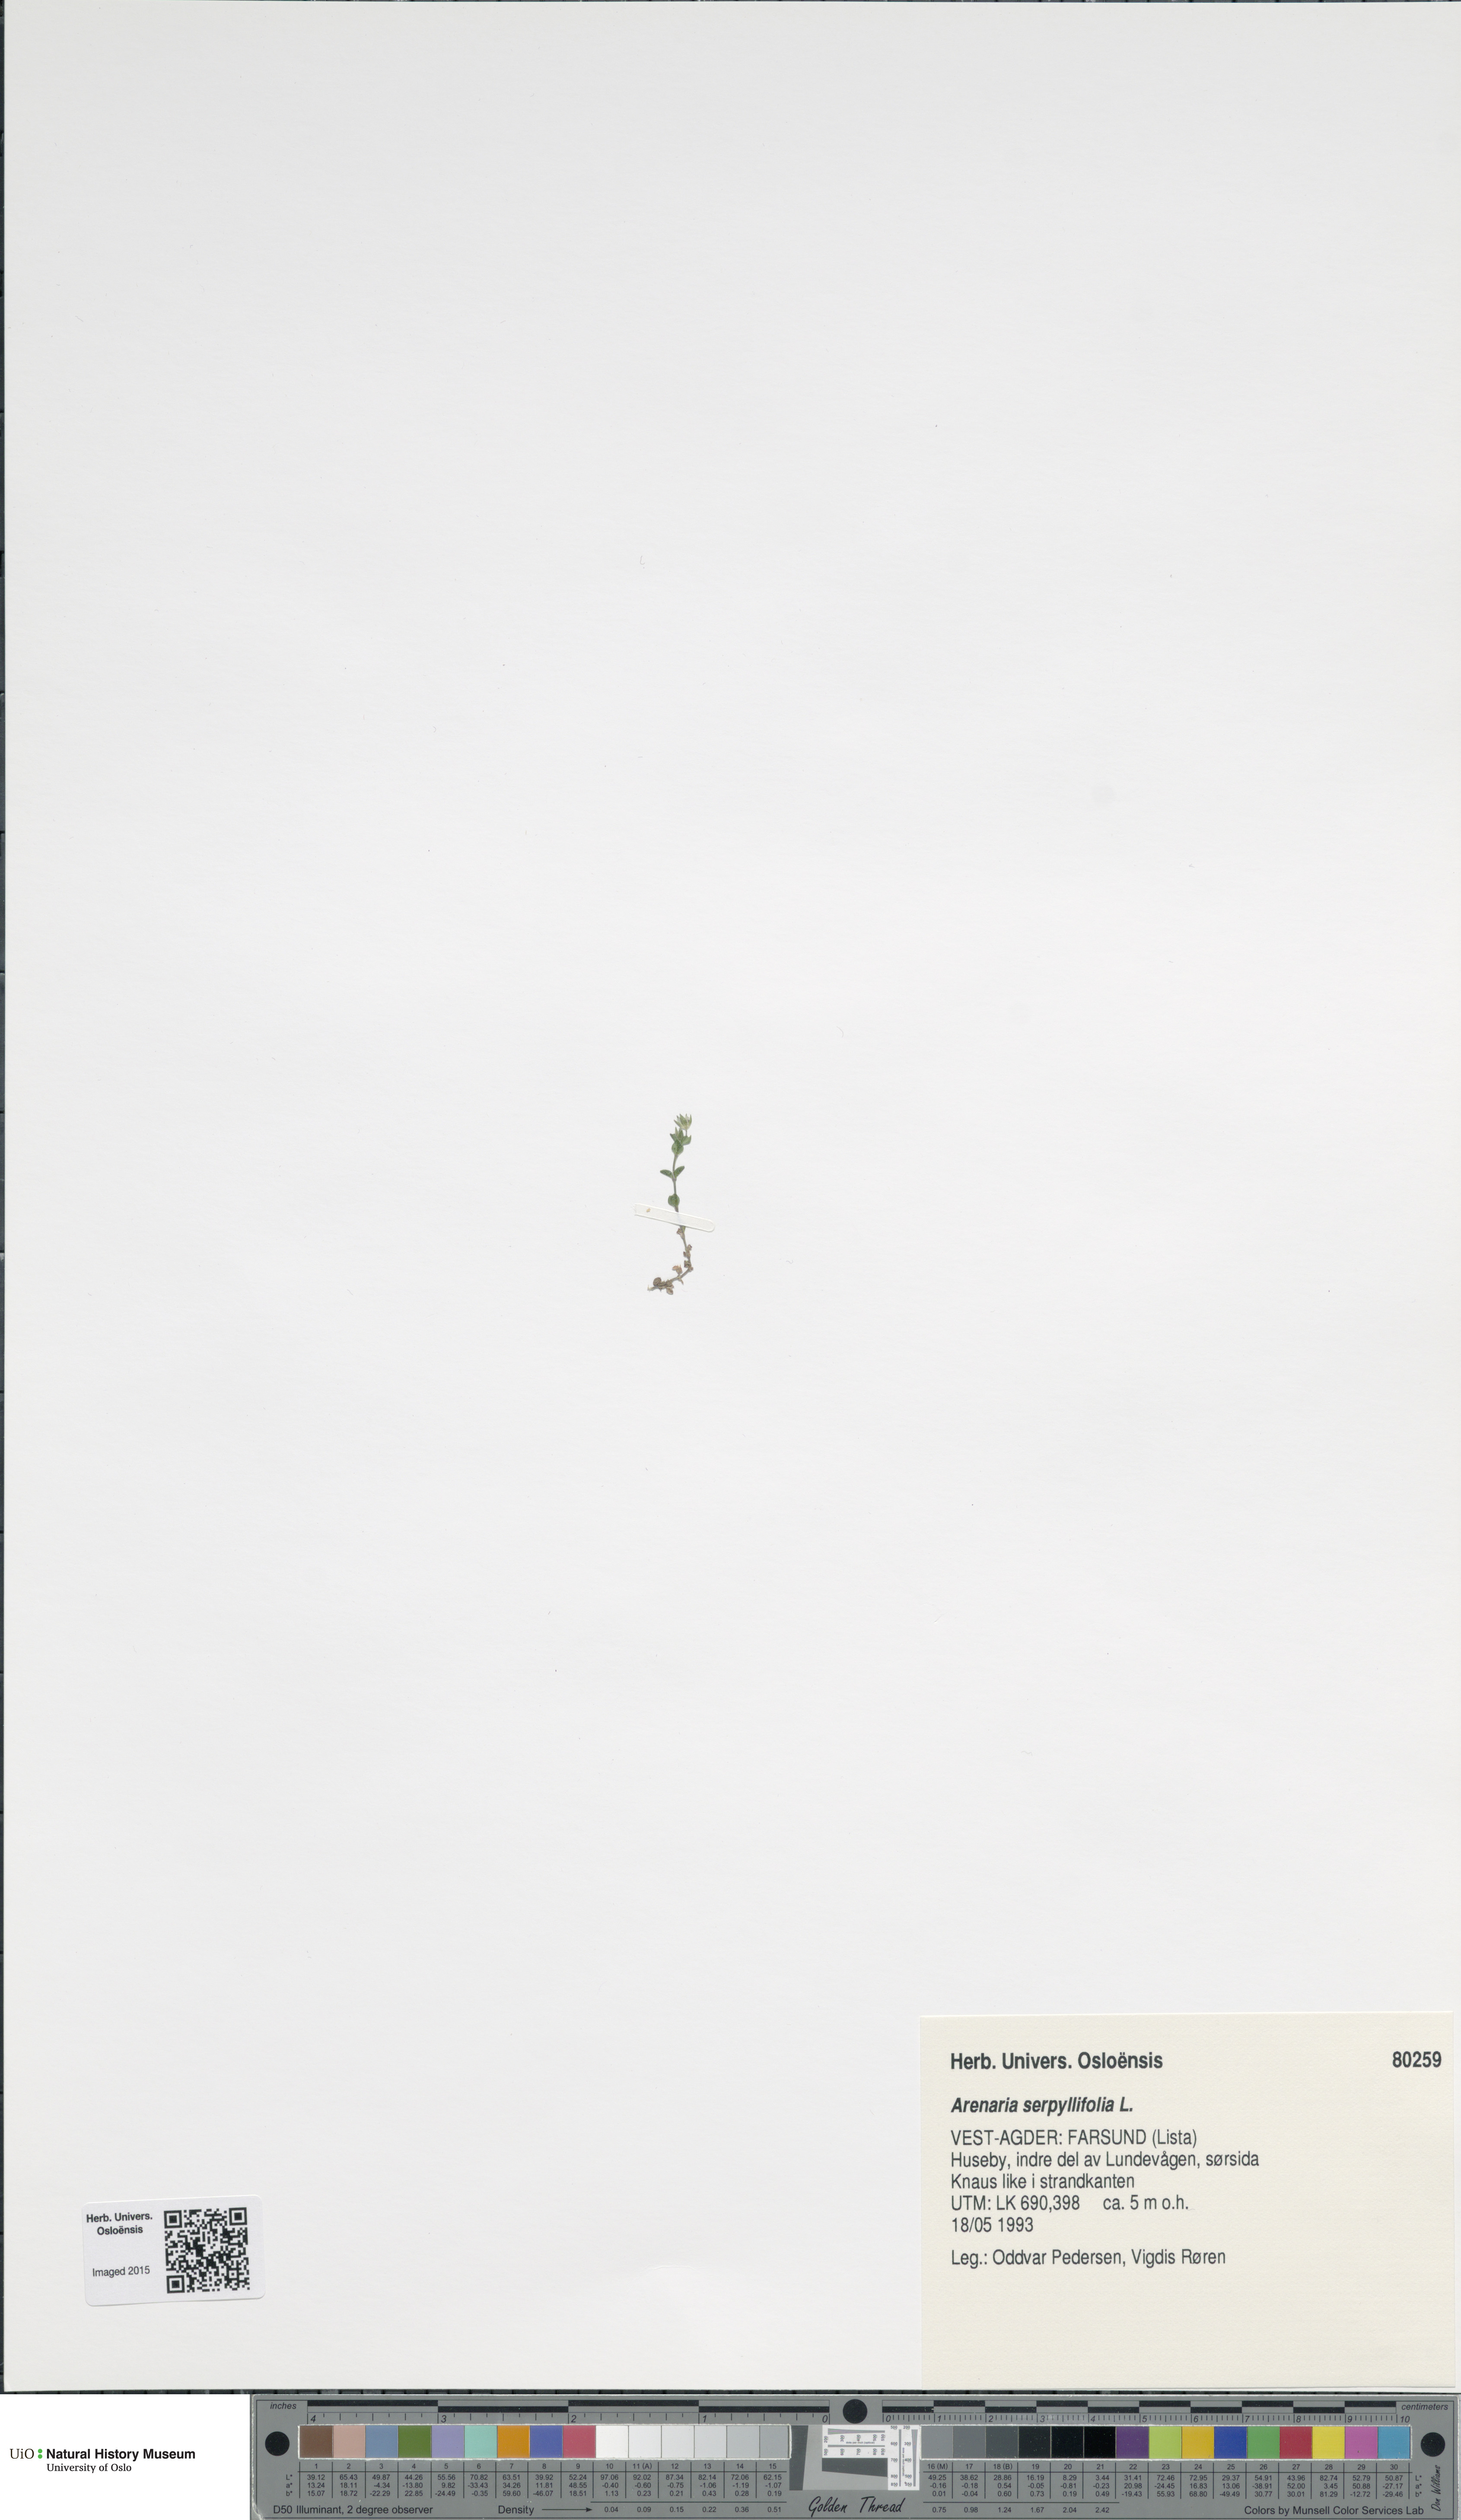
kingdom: Plantae
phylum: Tracheophyta
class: Magnoliopsida
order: Caryophyllales
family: Caryophyllaceae
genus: Arenaria
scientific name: Arenaria serpyllifolia
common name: Thyme-leaved sandwort
